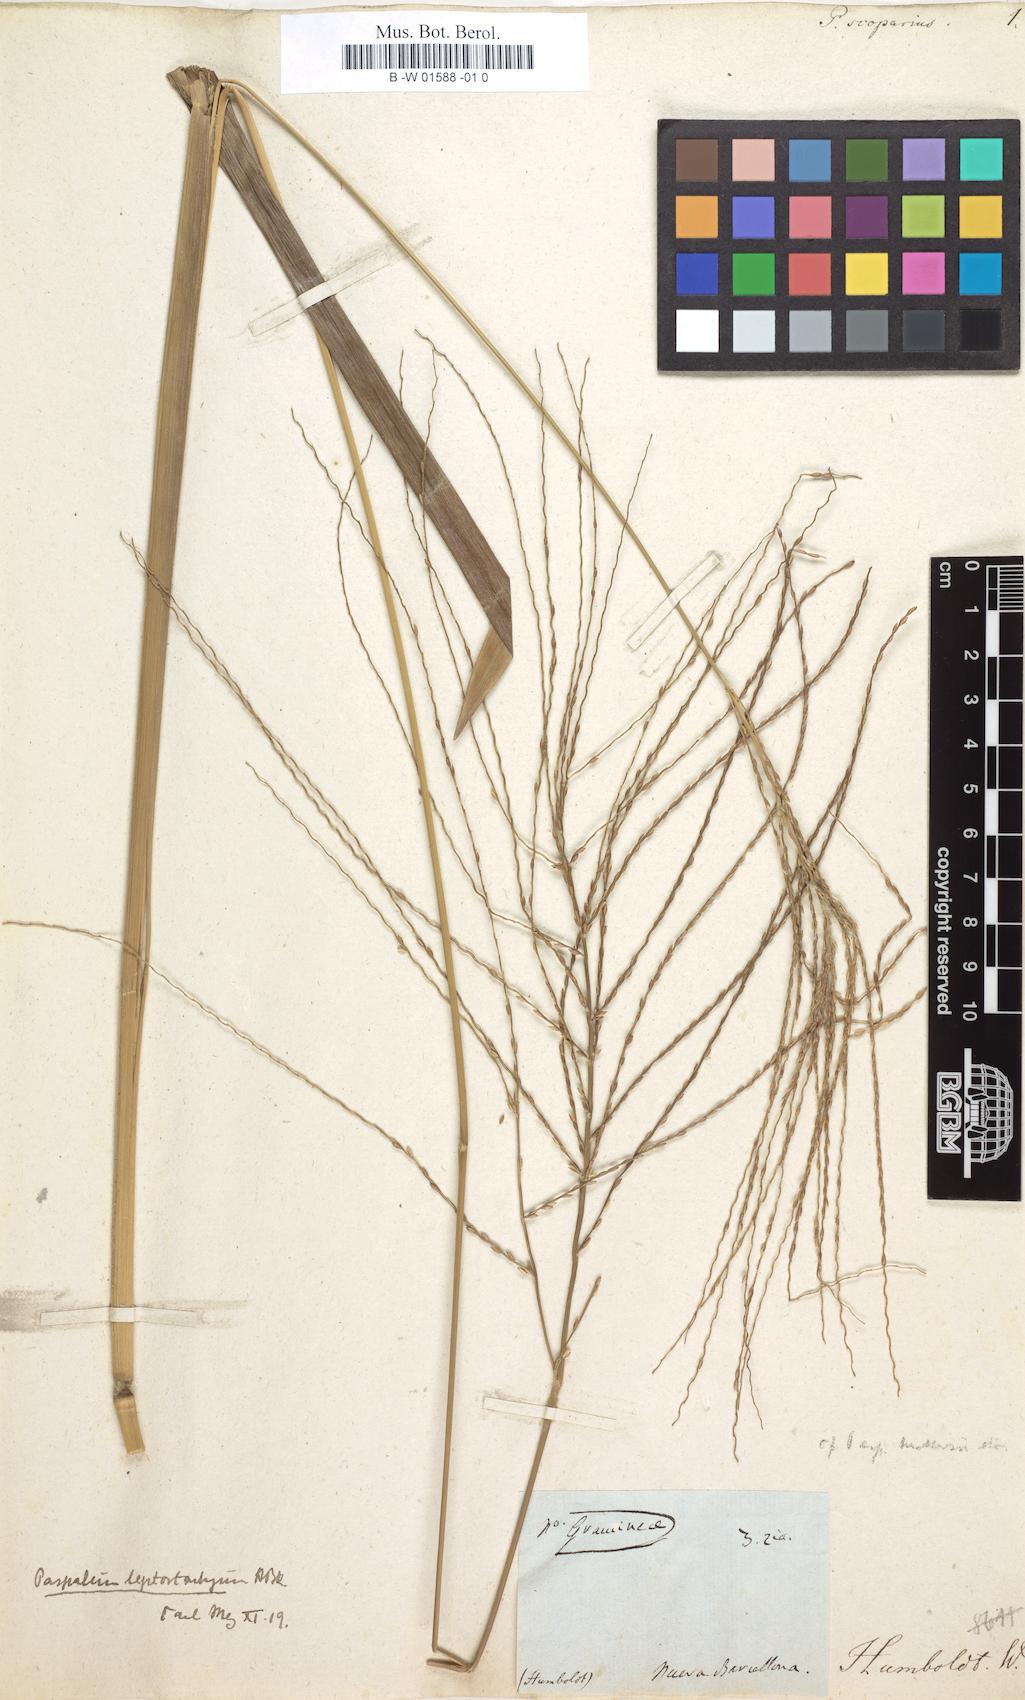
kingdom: Plantae
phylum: Tracheophyta
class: Liliopsida
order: Poales
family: Poaceae
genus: Axonopus
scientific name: Axonopus scoparius
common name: Imperial grass
